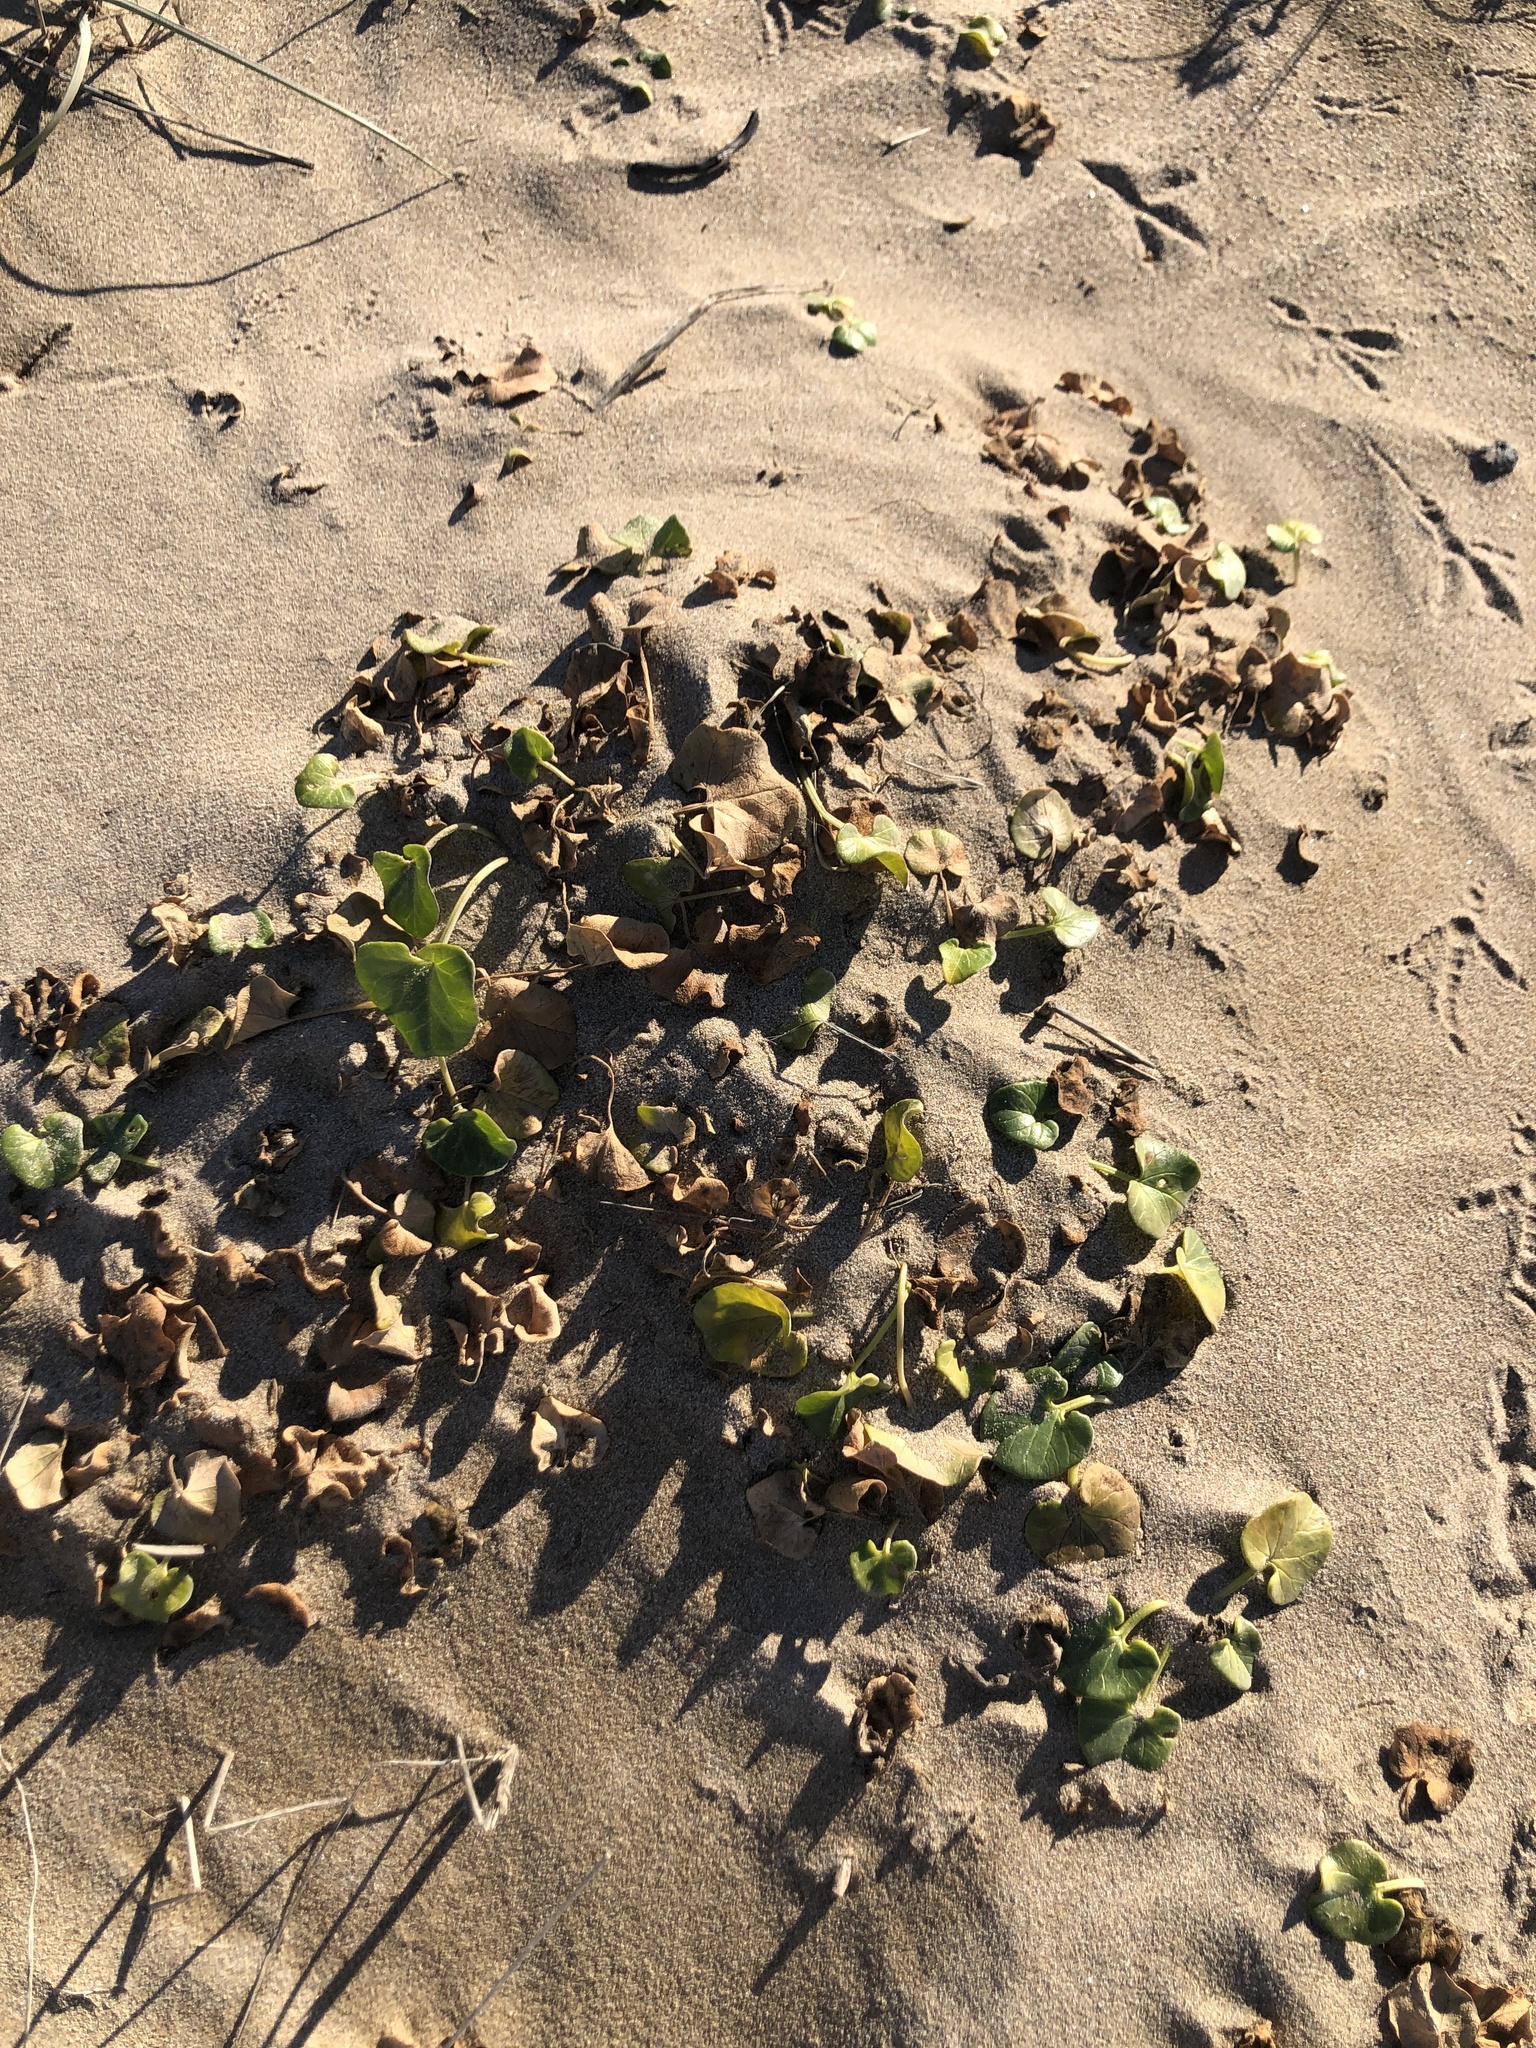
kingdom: Plantae
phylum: Tracheophyta
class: Magnoliopsida
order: Solanales
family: Convolvulaceae
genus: Calystegia
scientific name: Calystegia soldanella
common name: Sea bindweed
